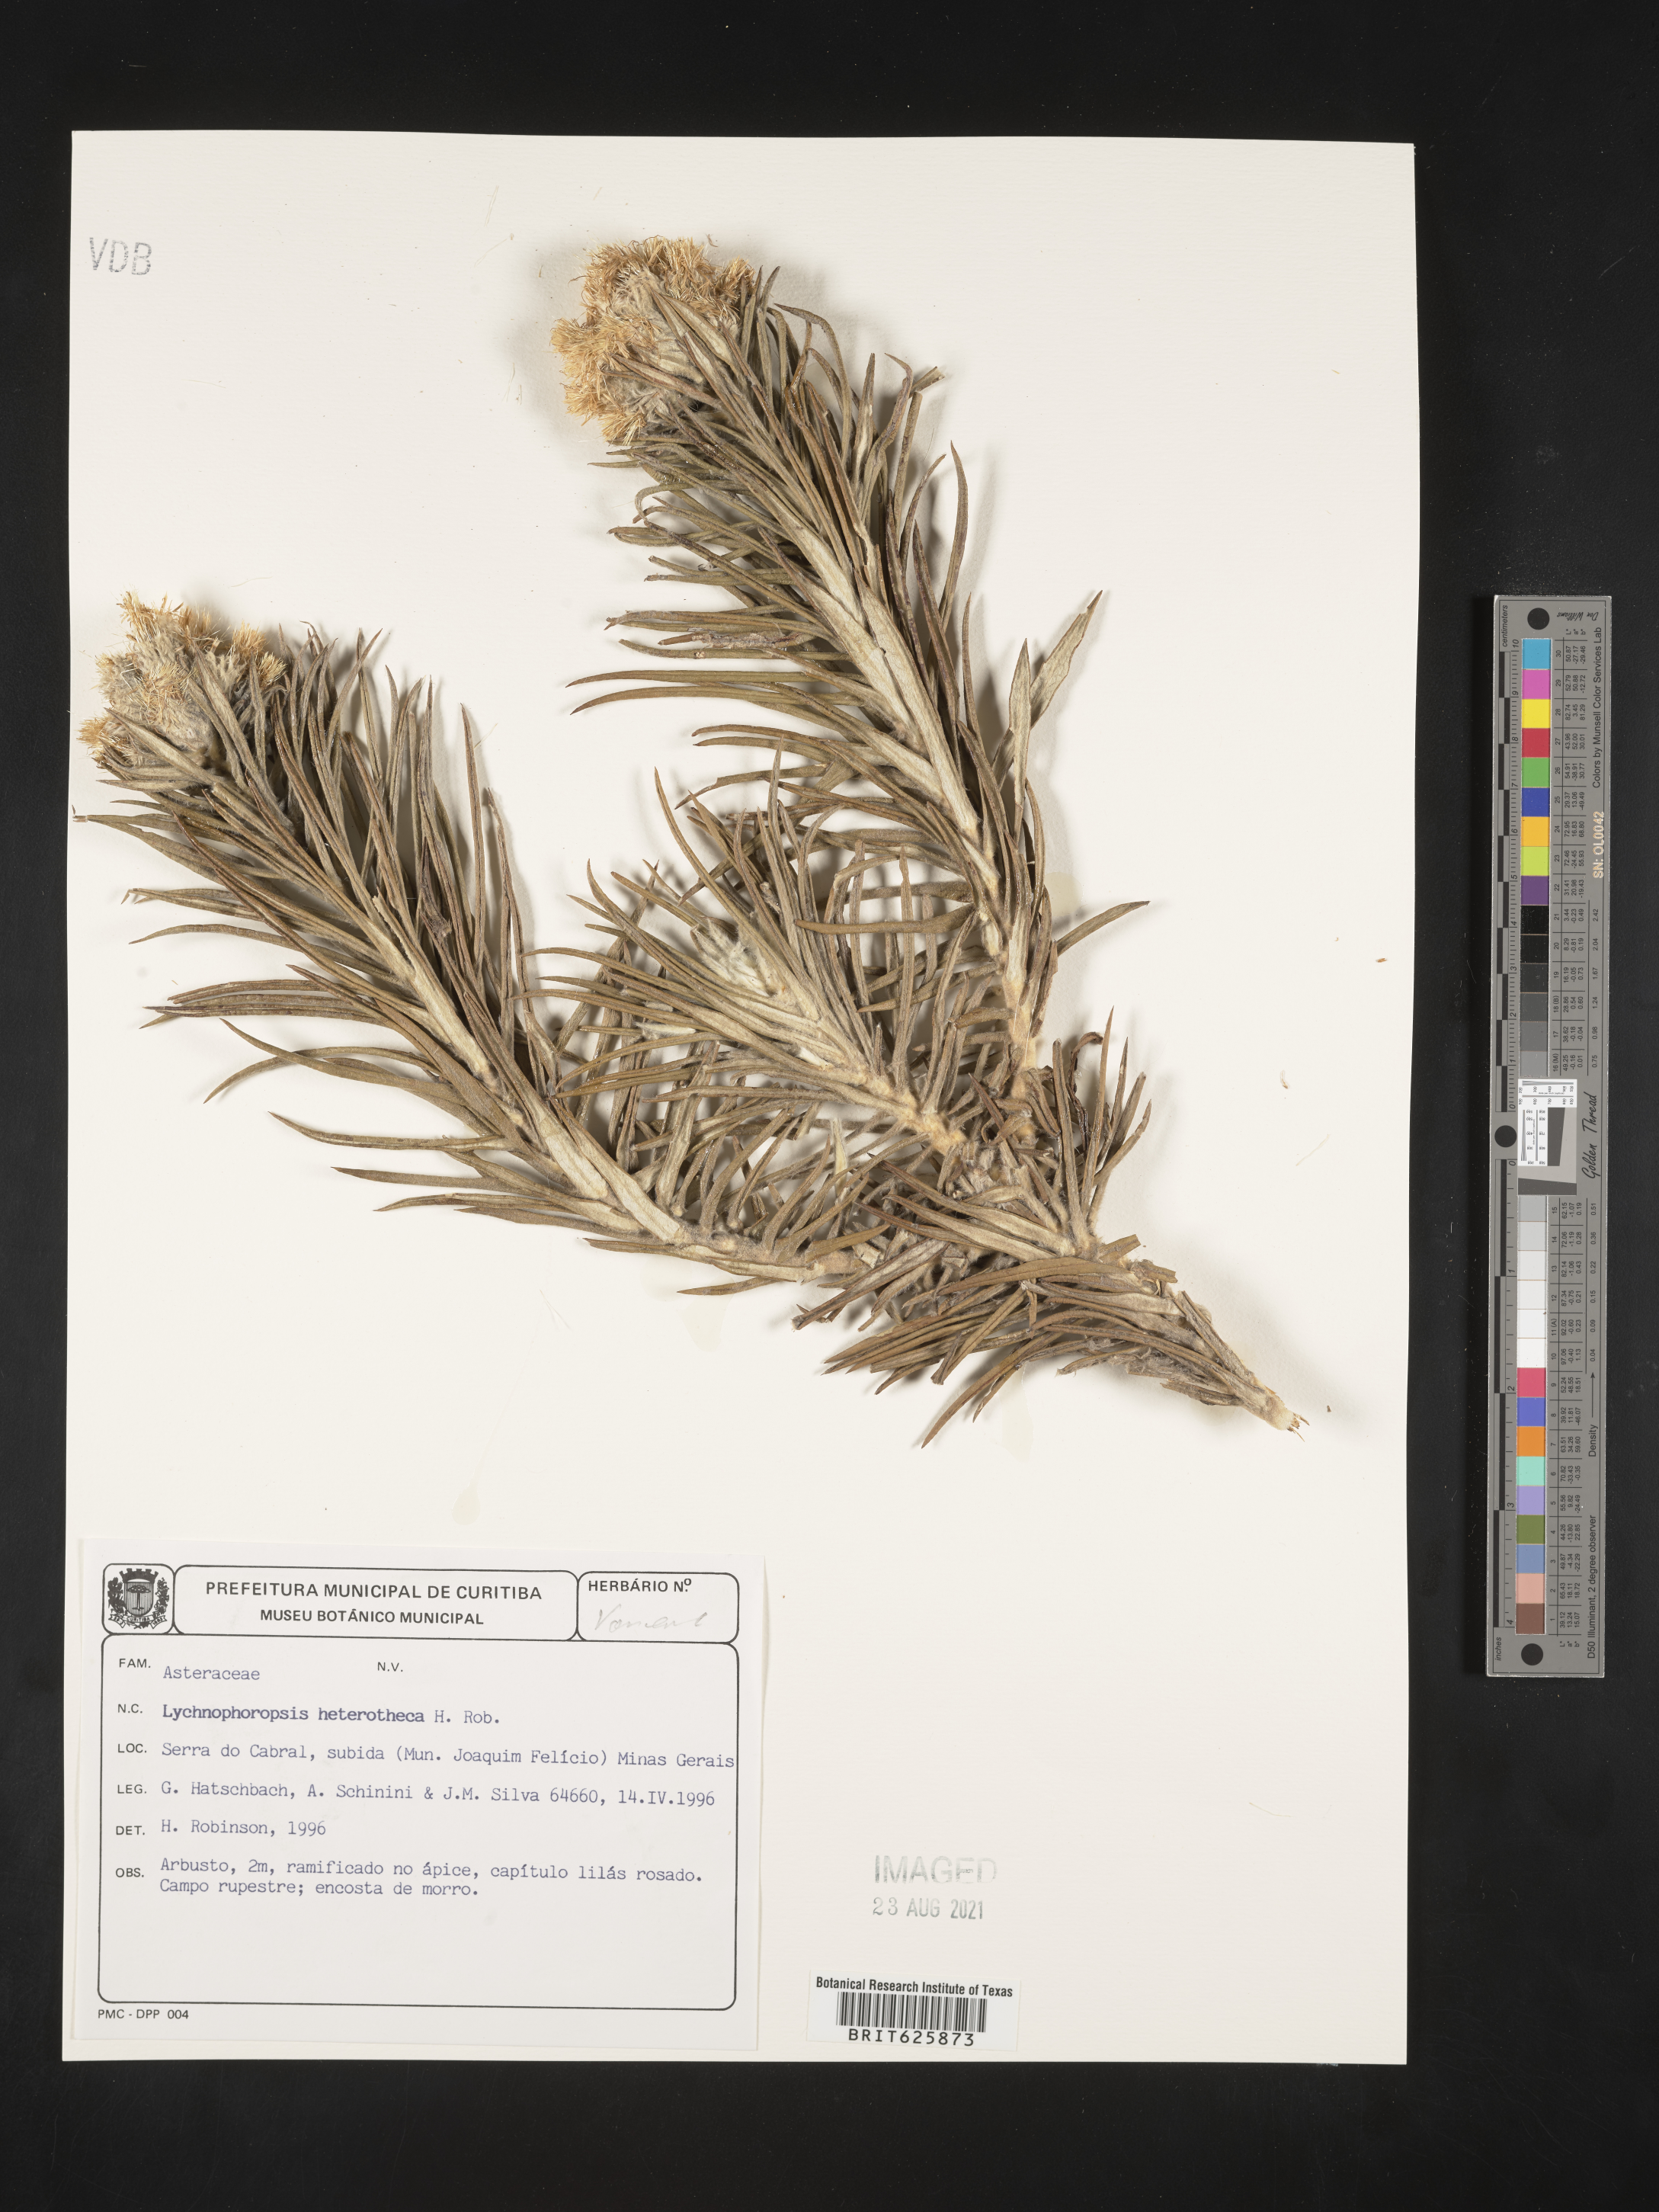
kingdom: Plantae
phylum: Tracheophyta
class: Magnoliopsida
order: Asterales
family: Asteraceae
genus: Lychnophora
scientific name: Lychnophora candelabrum
